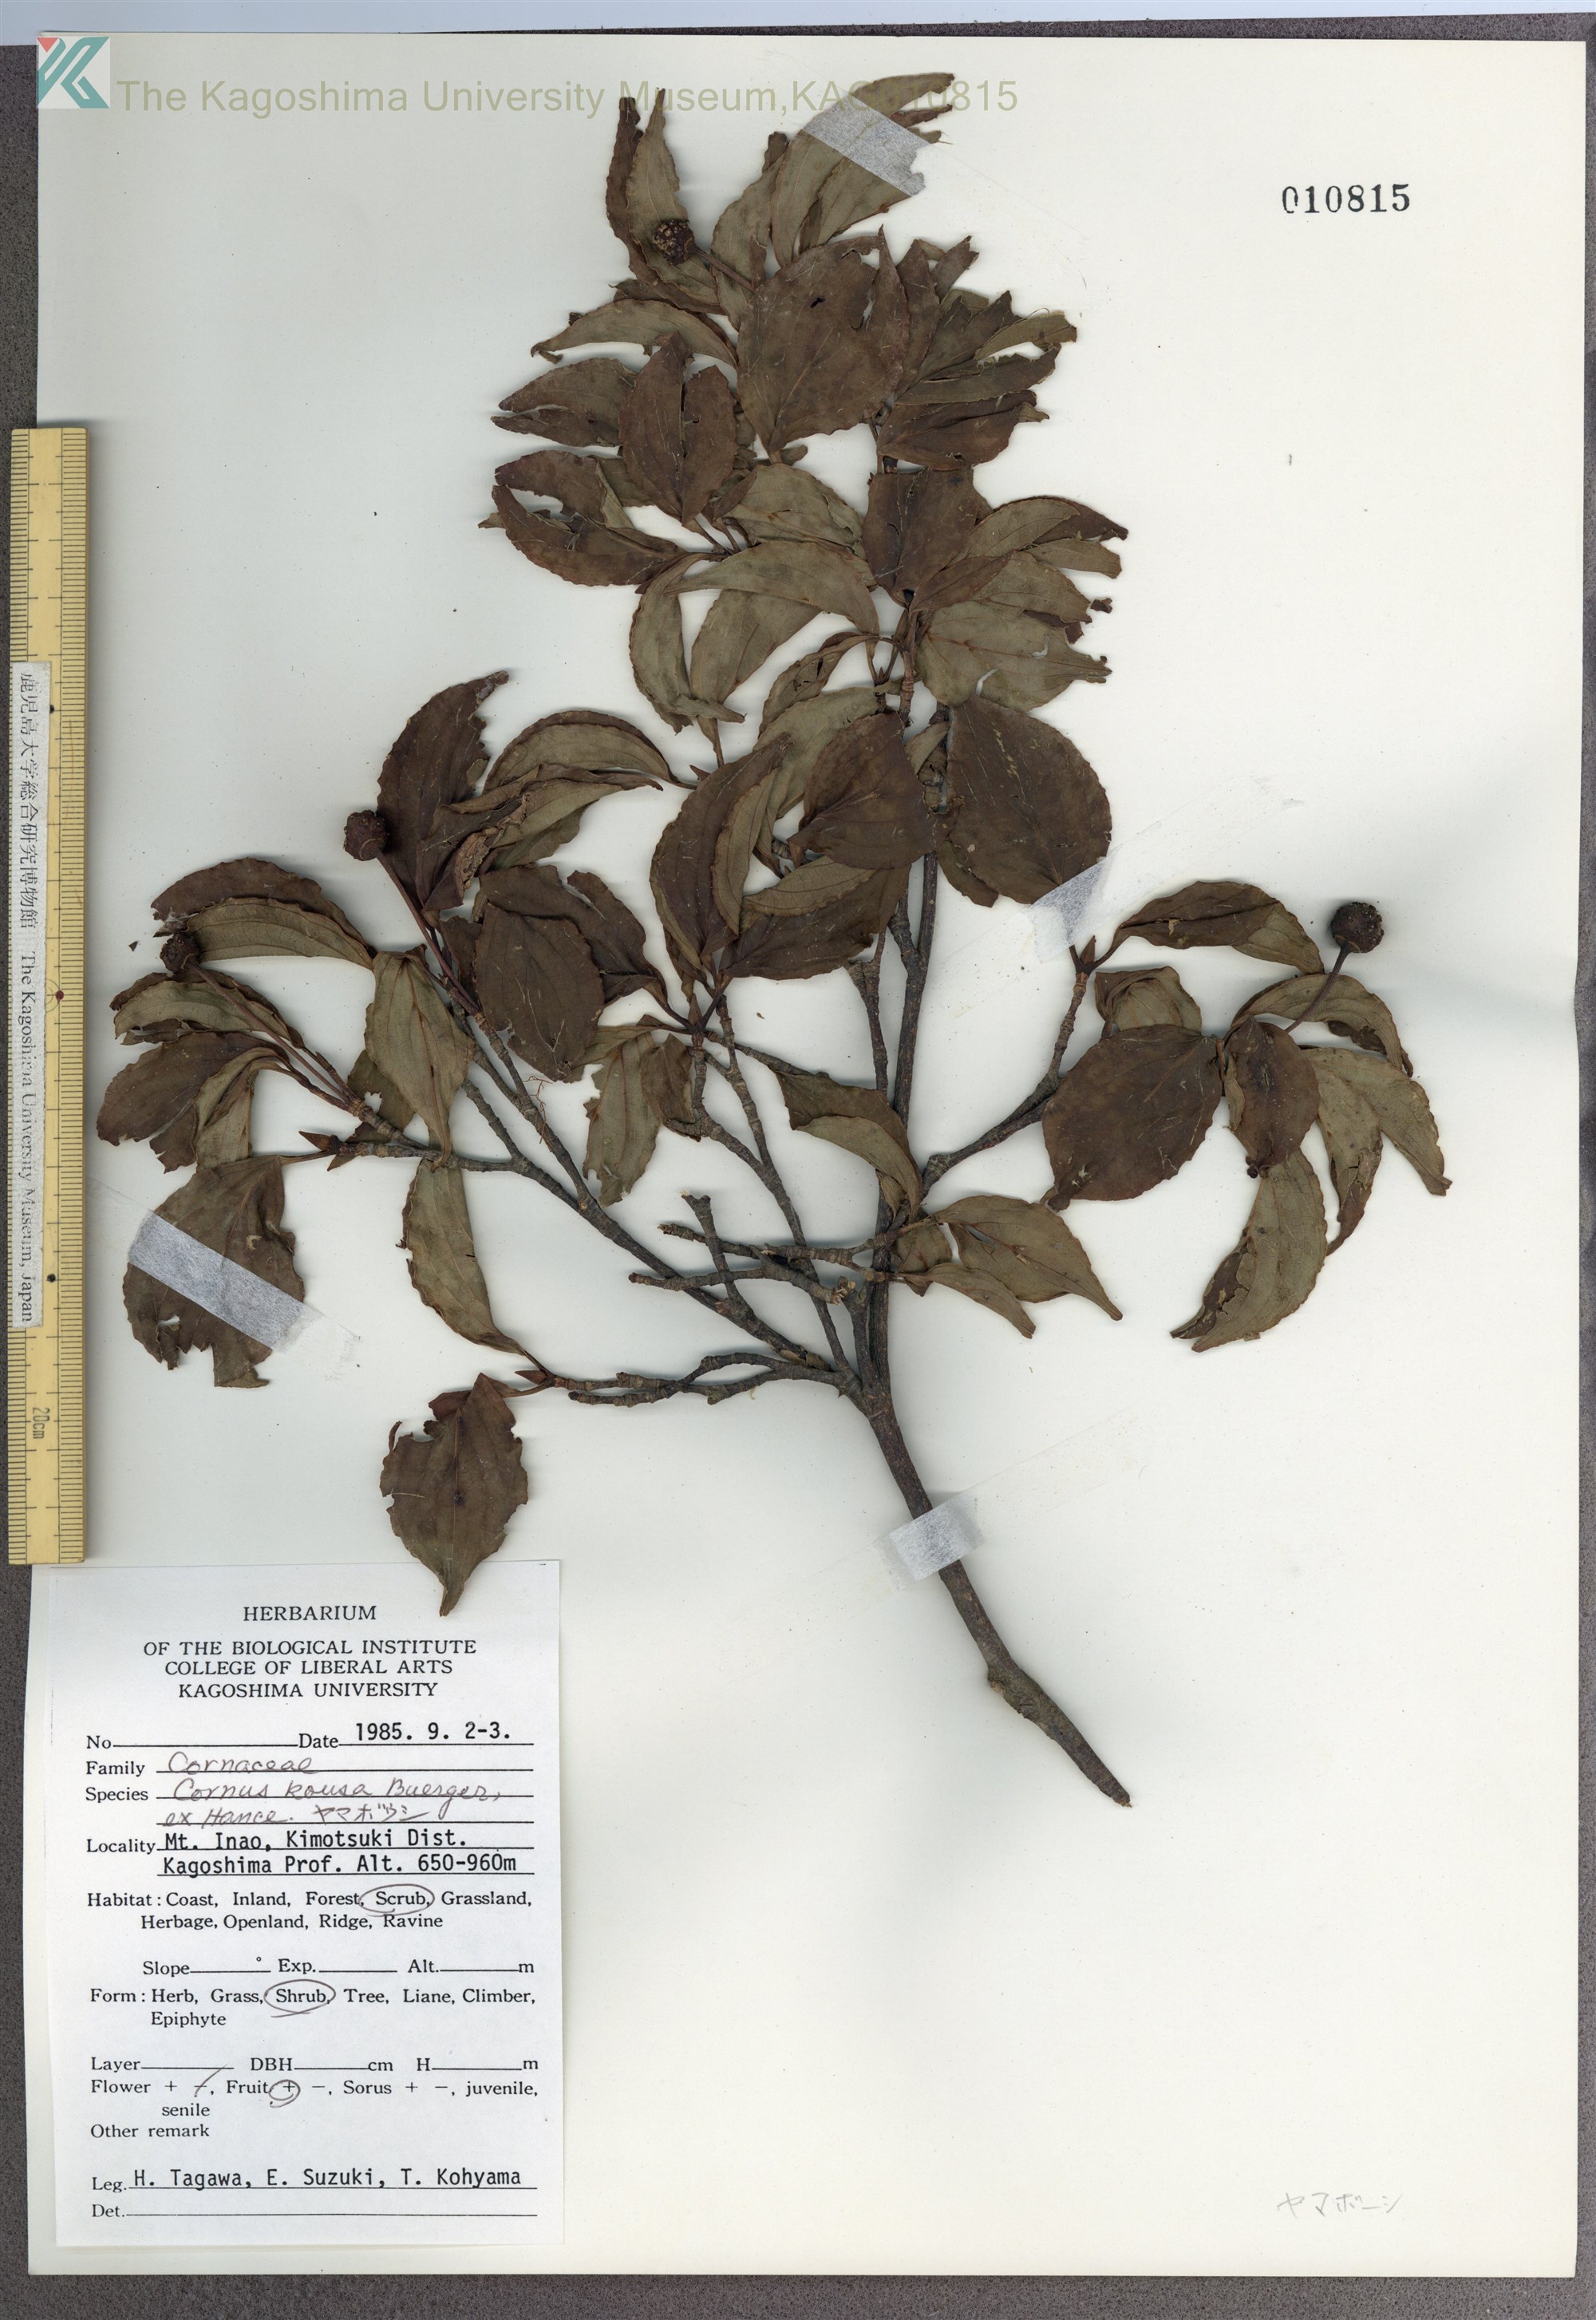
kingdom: Plantae
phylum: Tracheophyta
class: Magnoliopsida
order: Cornales
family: Cornaceae
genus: Cornus
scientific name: Cornus kousa
